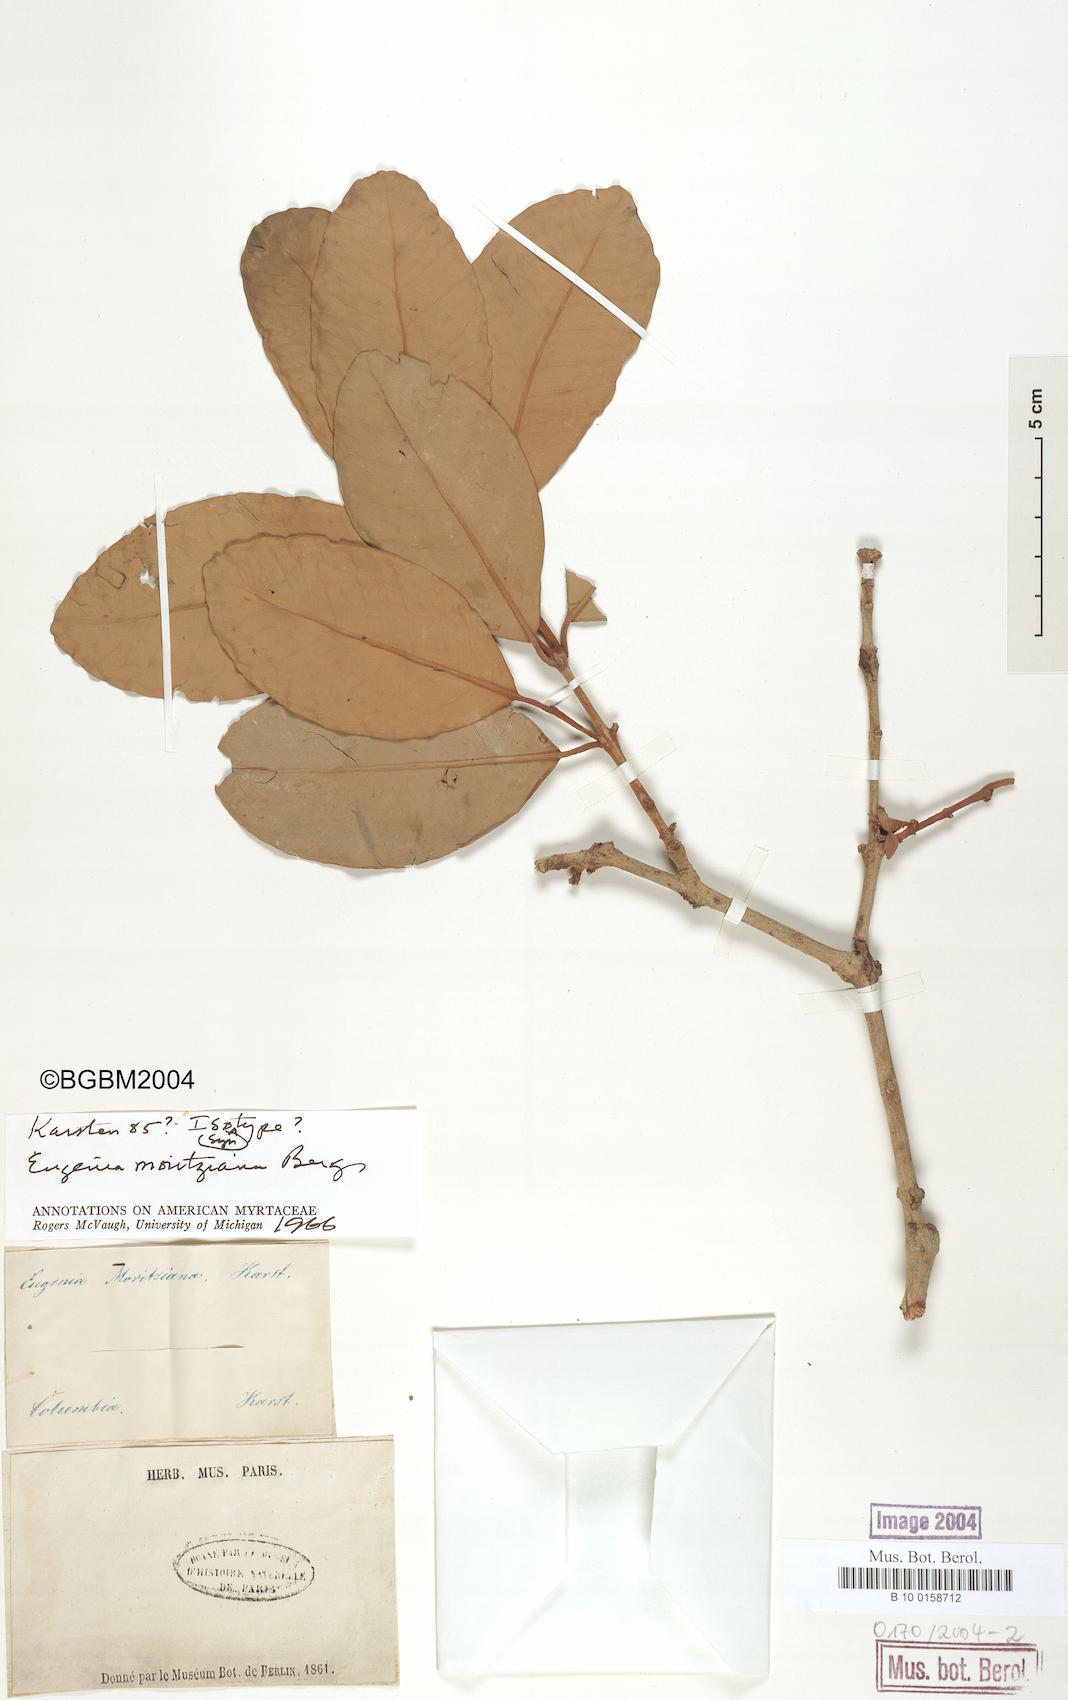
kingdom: Plantae
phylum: Tracheophyta
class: Magnoliopsida
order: Myrtales
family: Myrtaceae
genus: Eugenia
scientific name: Eugenia moritziana
